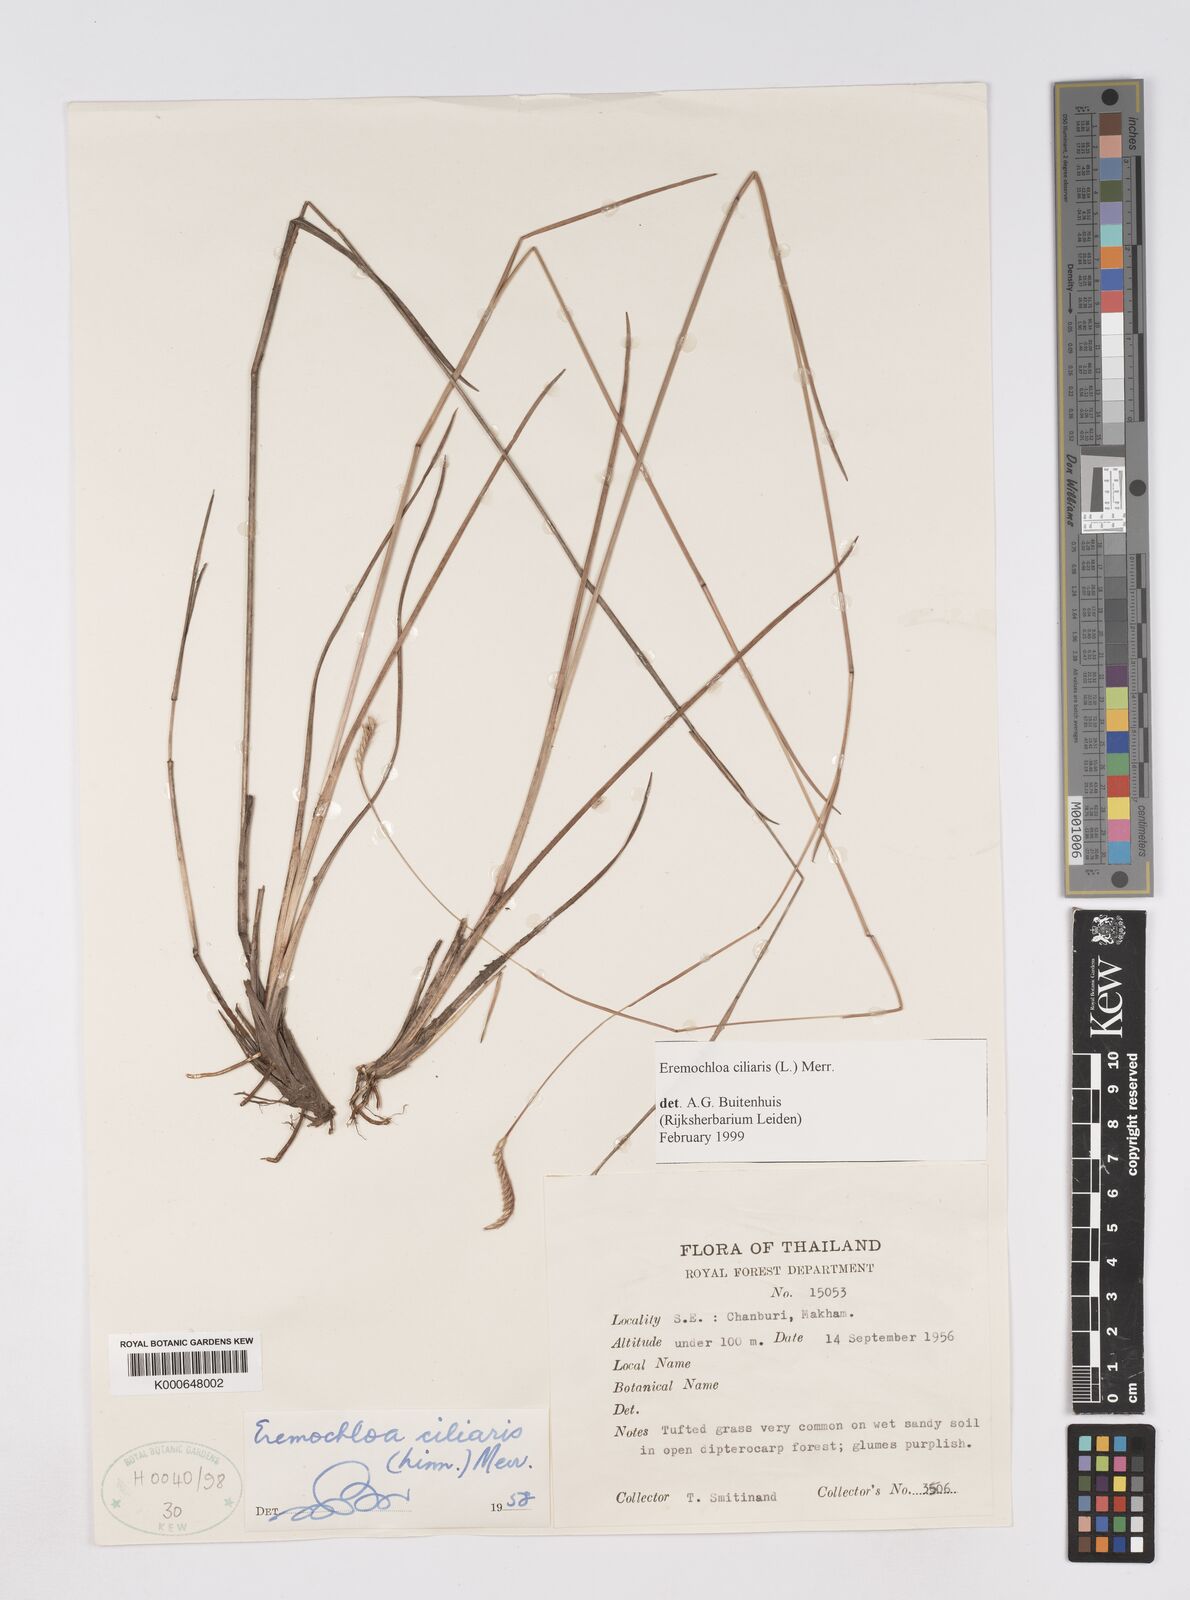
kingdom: Plantae
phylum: Tracheophyta
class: Liliopsida
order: Poales
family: Poaceae
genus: Eremochloa
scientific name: Eremochloa ciliaris
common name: Fringed centipede grass
